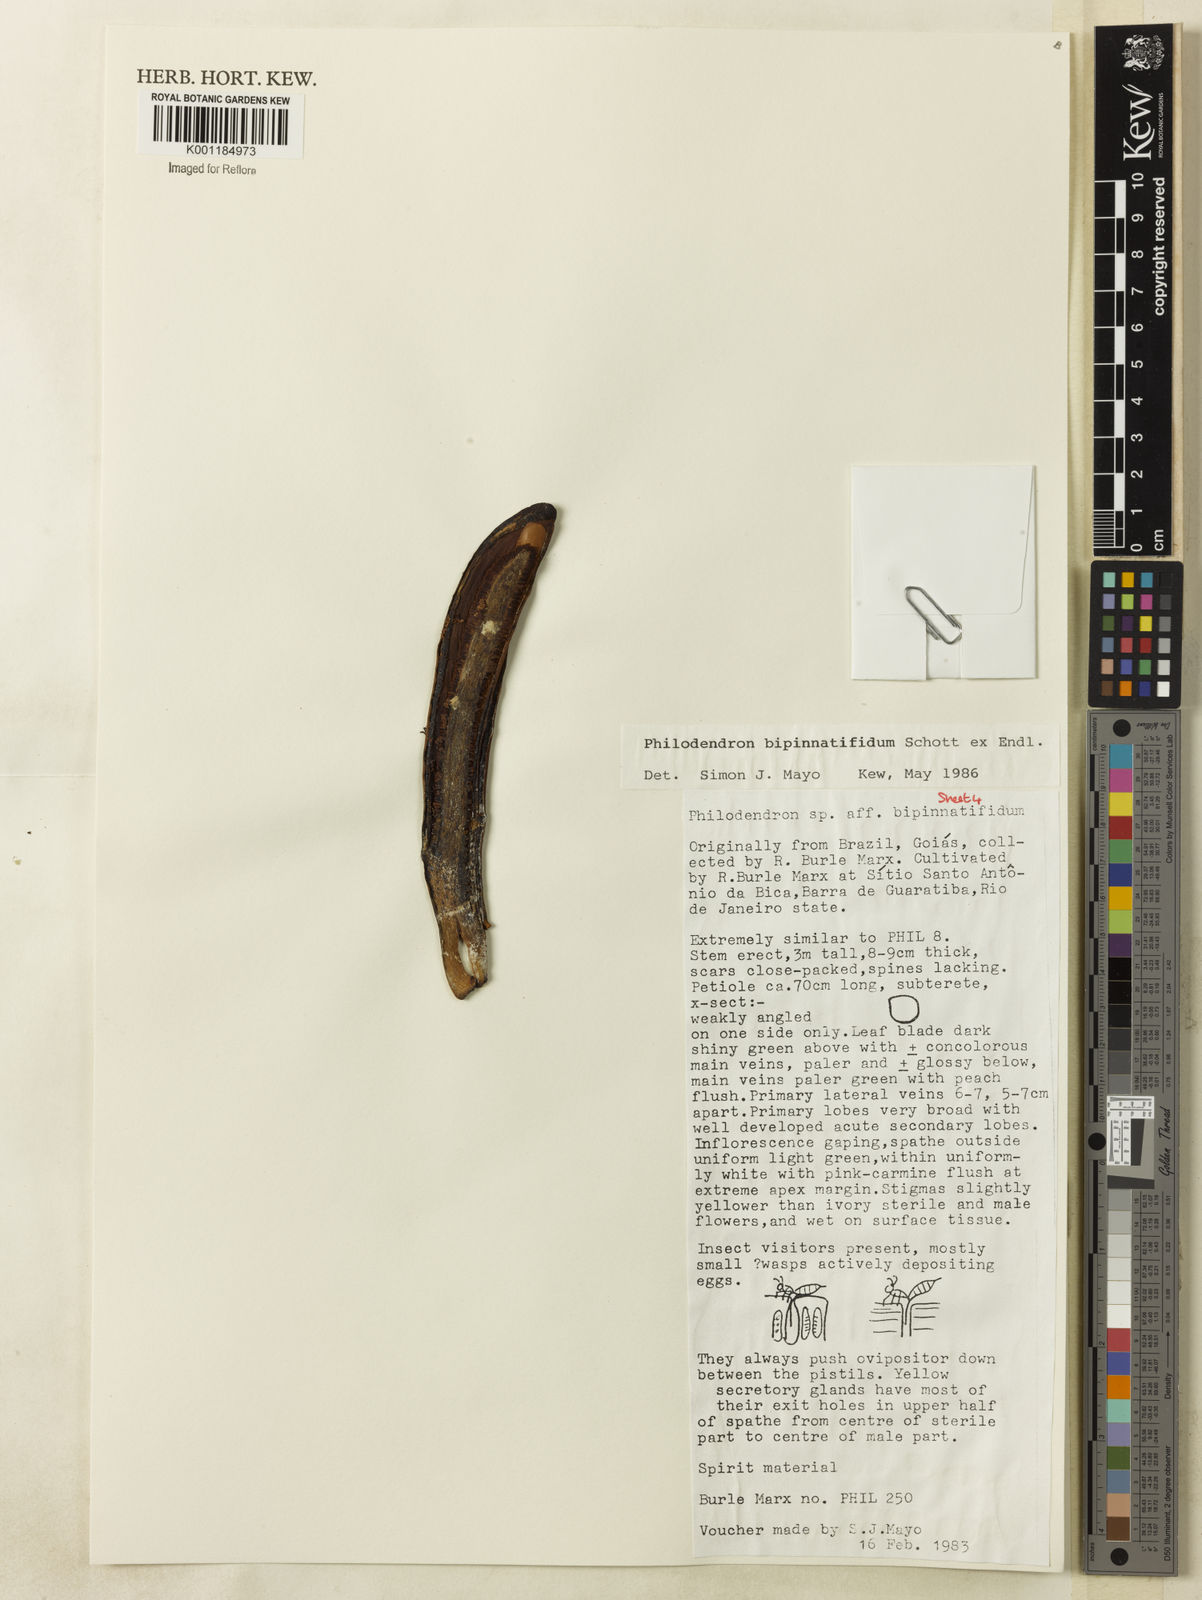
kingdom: Plantae
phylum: Tracheophyta
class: Liliopsida
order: Alismatales
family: Araceae
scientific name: Araceae
